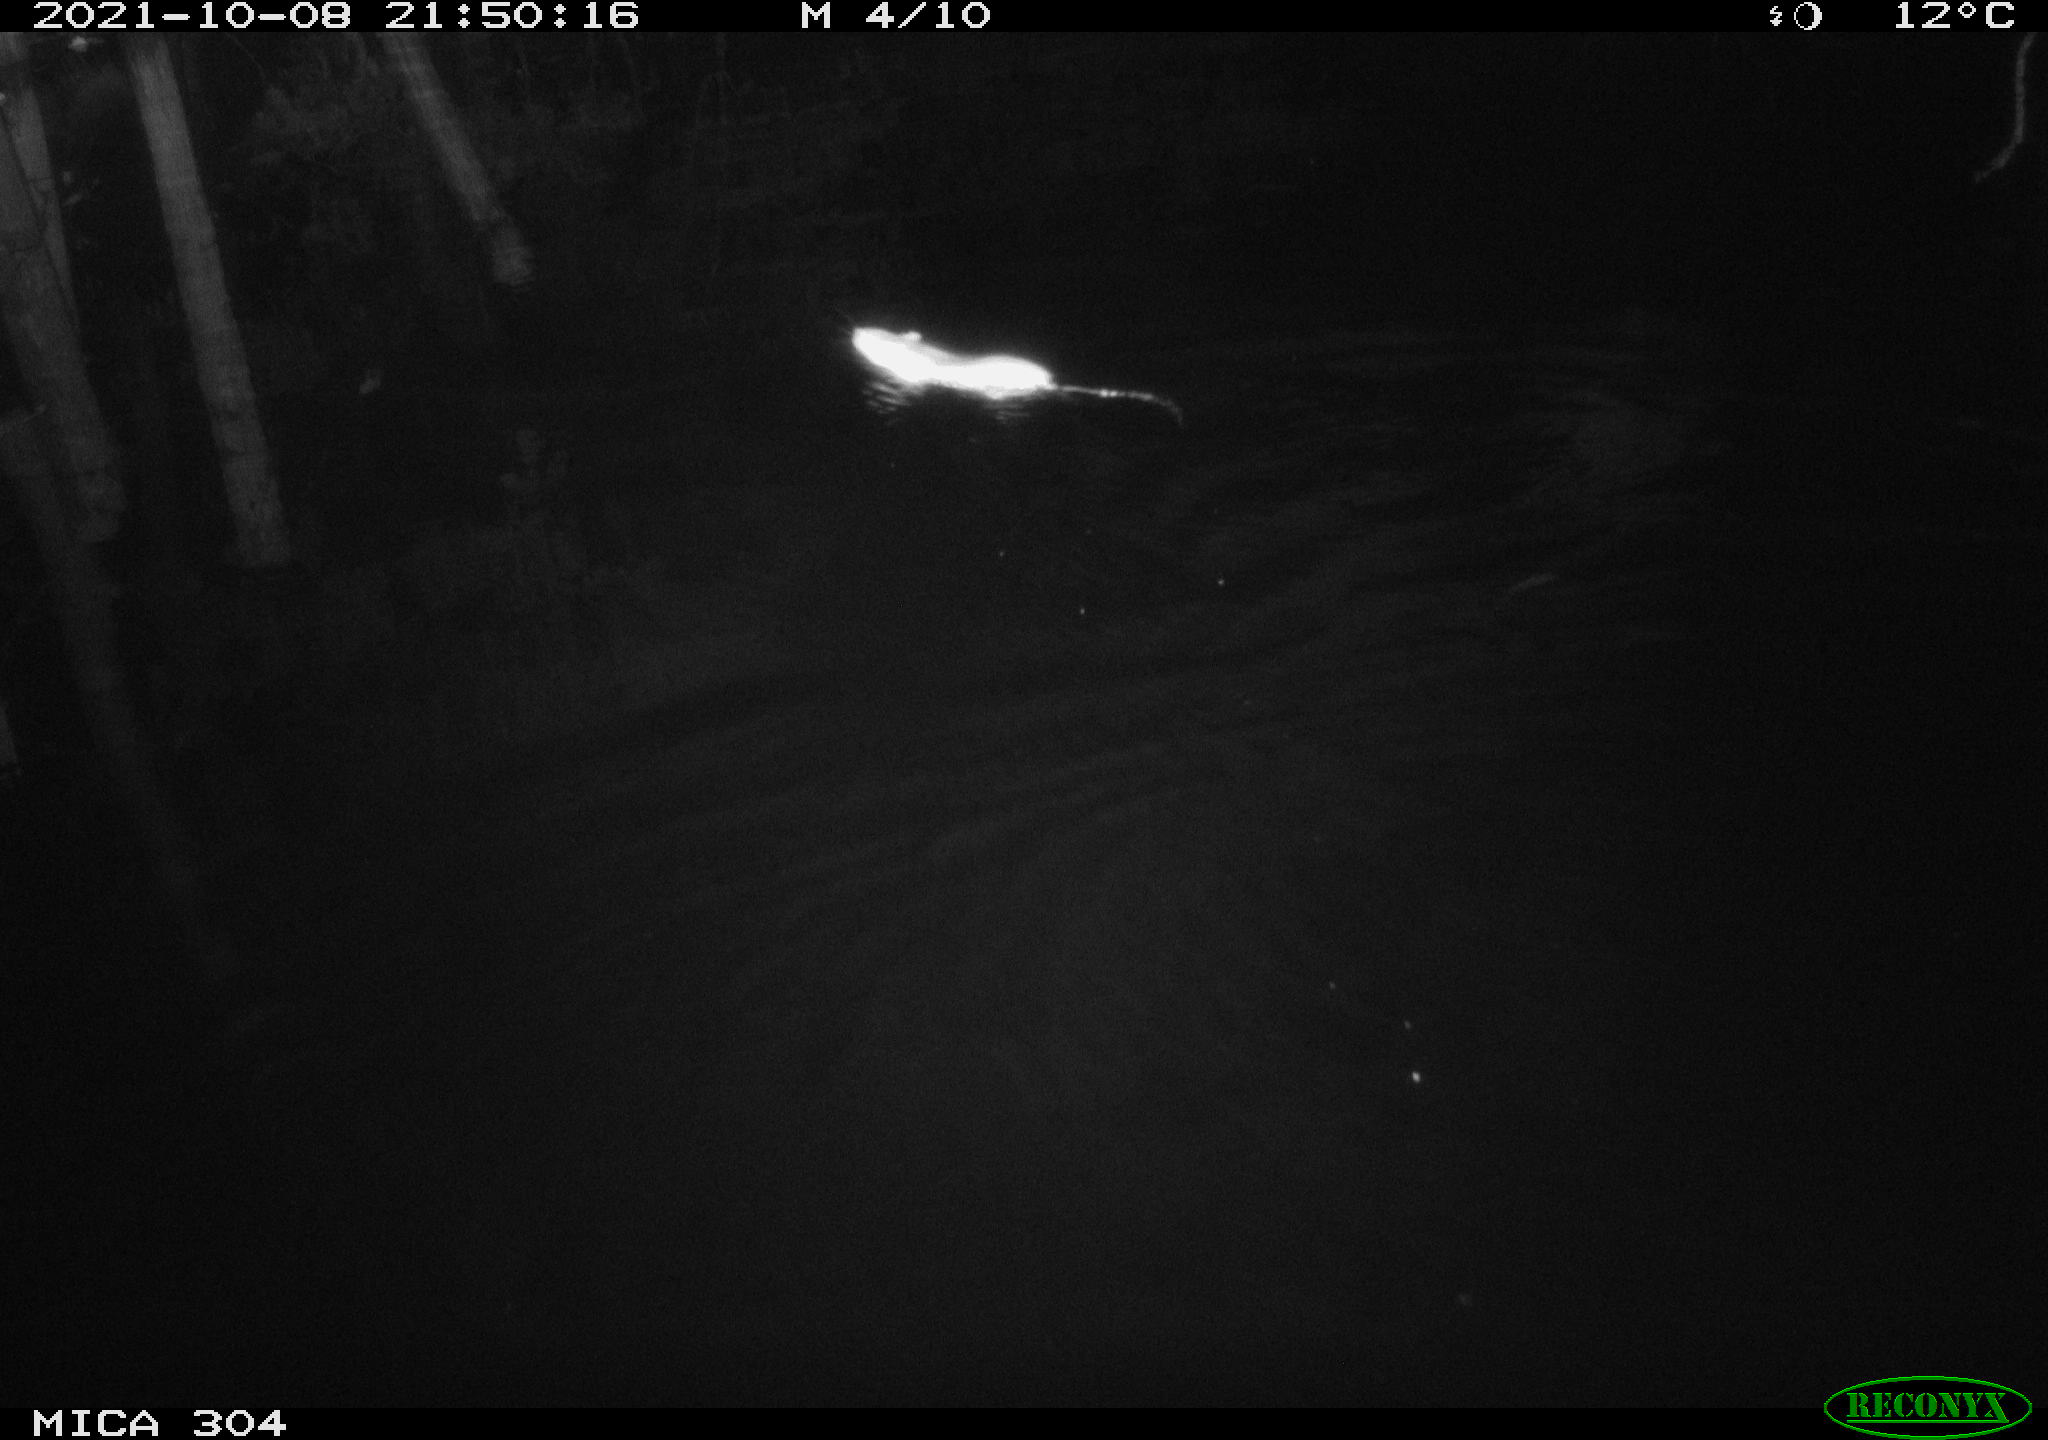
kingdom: Animalia
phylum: Chordata
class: Mammalia
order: Rodentia
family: Muridae
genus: Rattus
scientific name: Rattus norvegicus
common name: Brown rat
